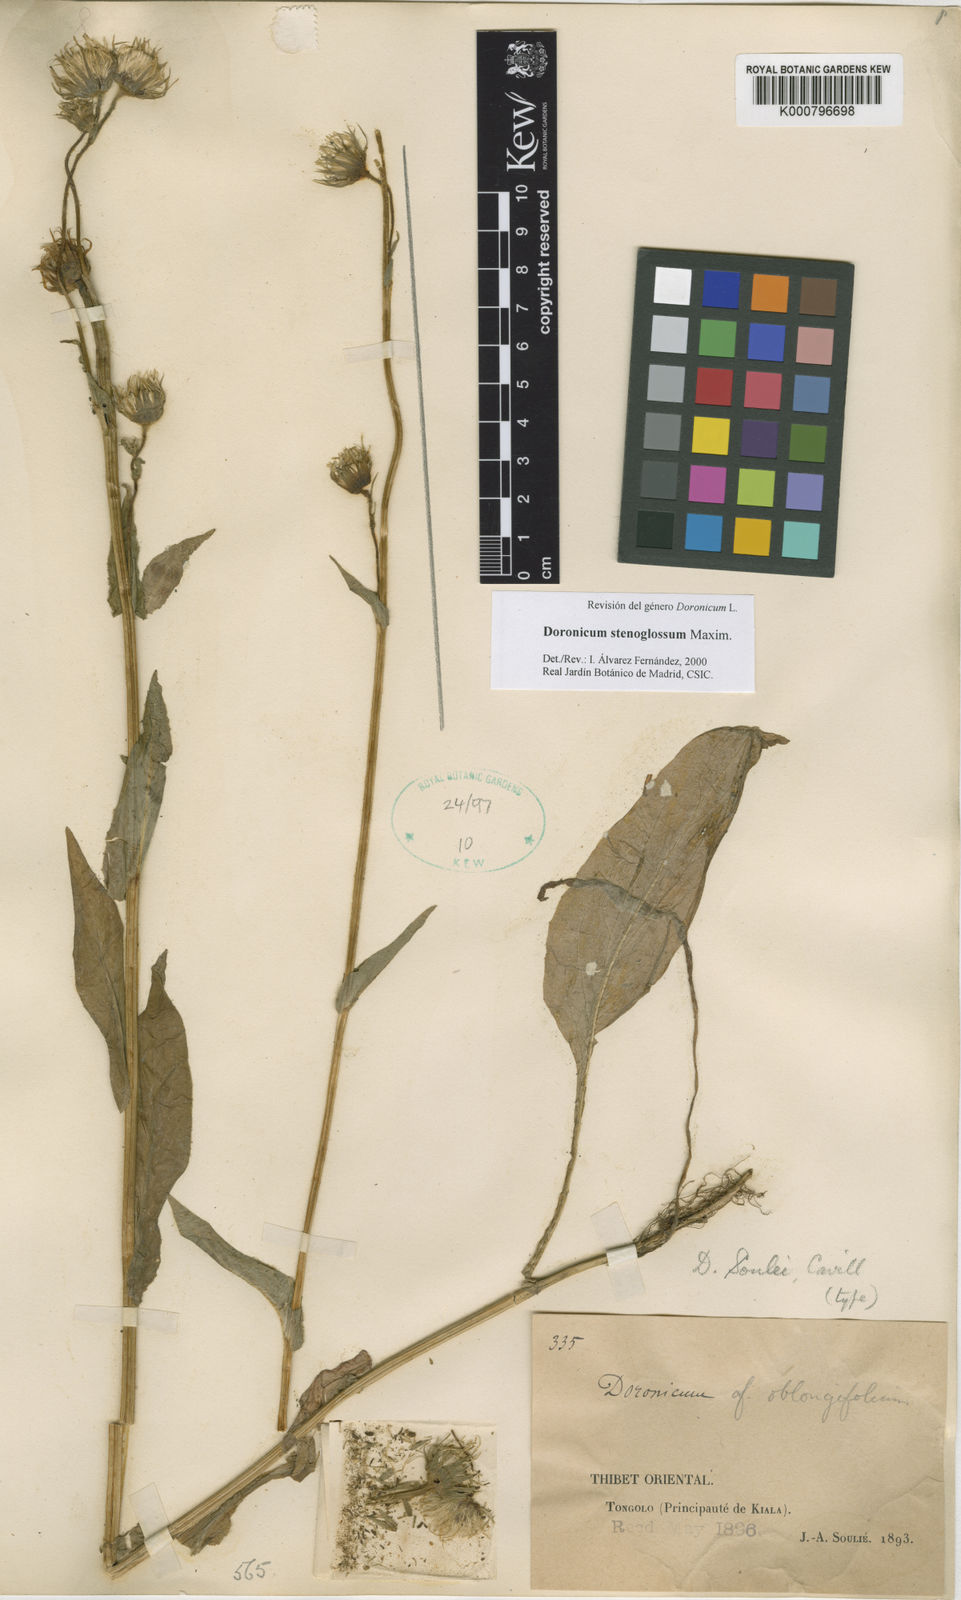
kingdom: Plantae
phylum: Tracheophyta
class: Magnoliopsida
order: Asterales
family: Asteraceae
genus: Doronicum
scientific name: Doronicum stenoglossum
